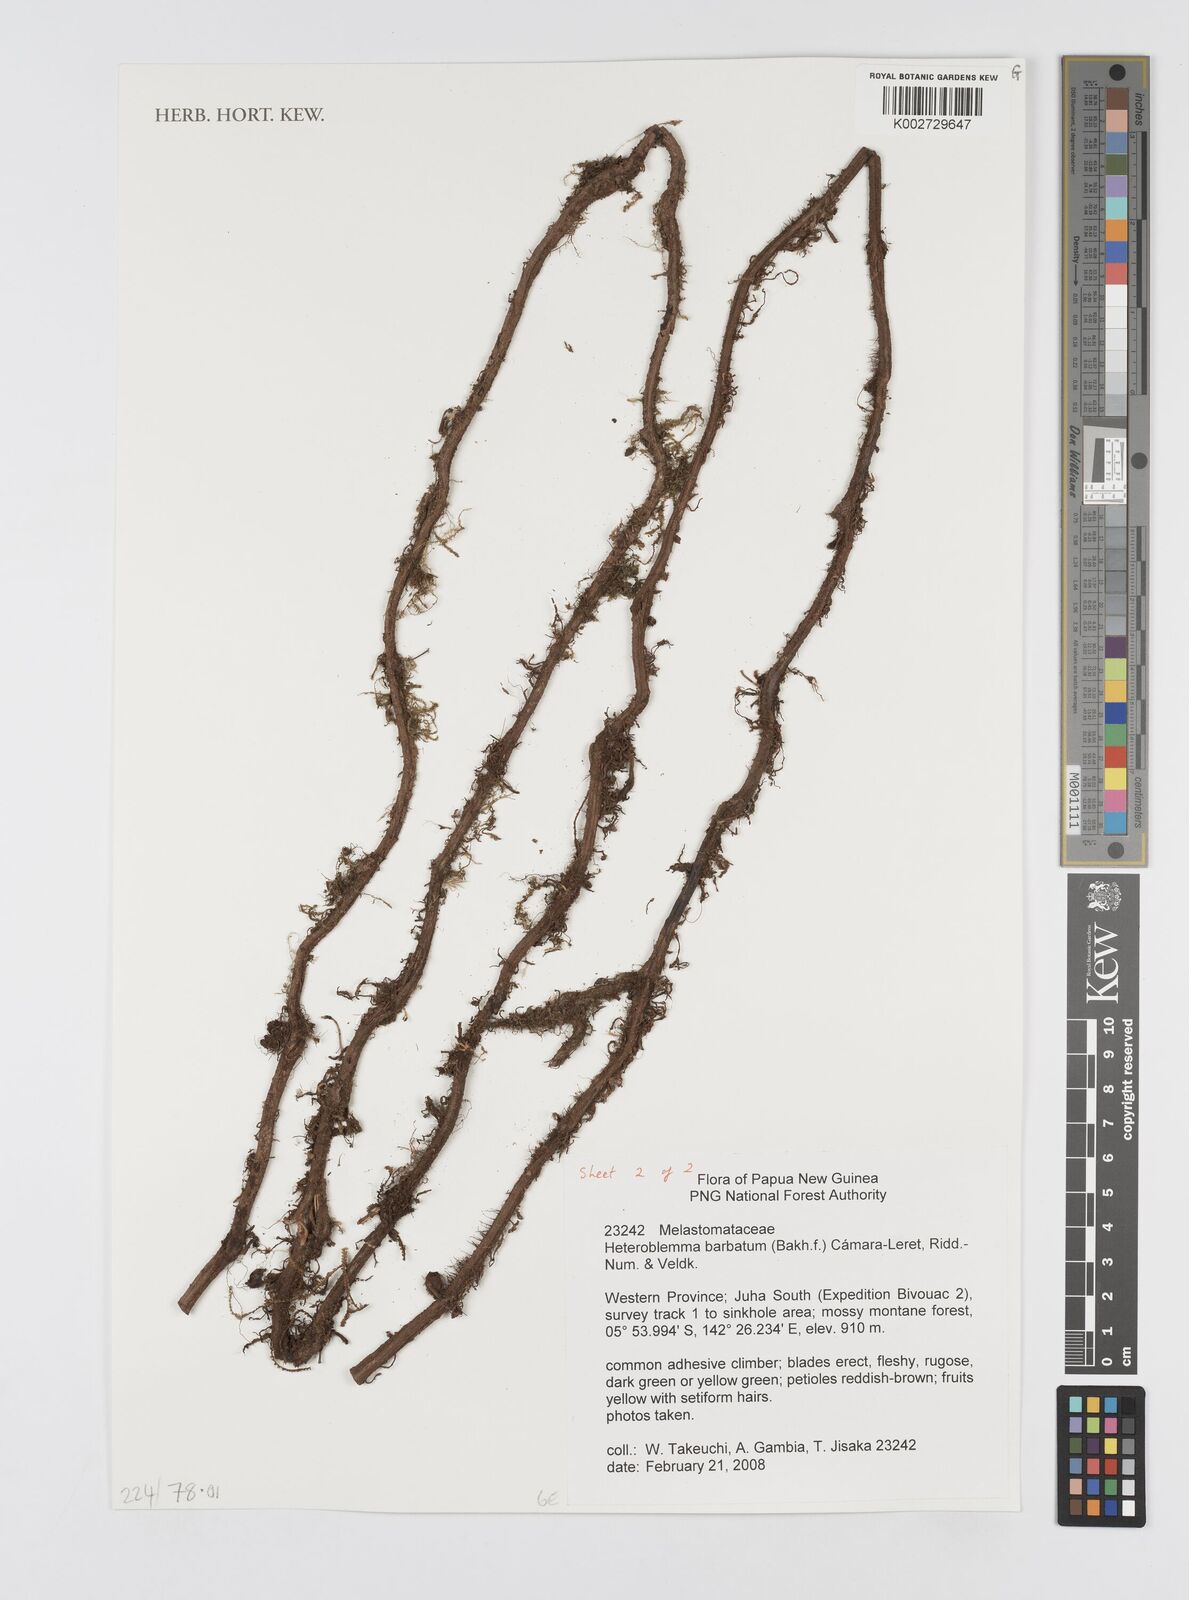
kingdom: Plantae
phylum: Tracheophyta
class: Magnoliopsida
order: Myrtales
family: Melastomataceae
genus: Heteroblemma
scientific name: Heteroblemma barbatum
